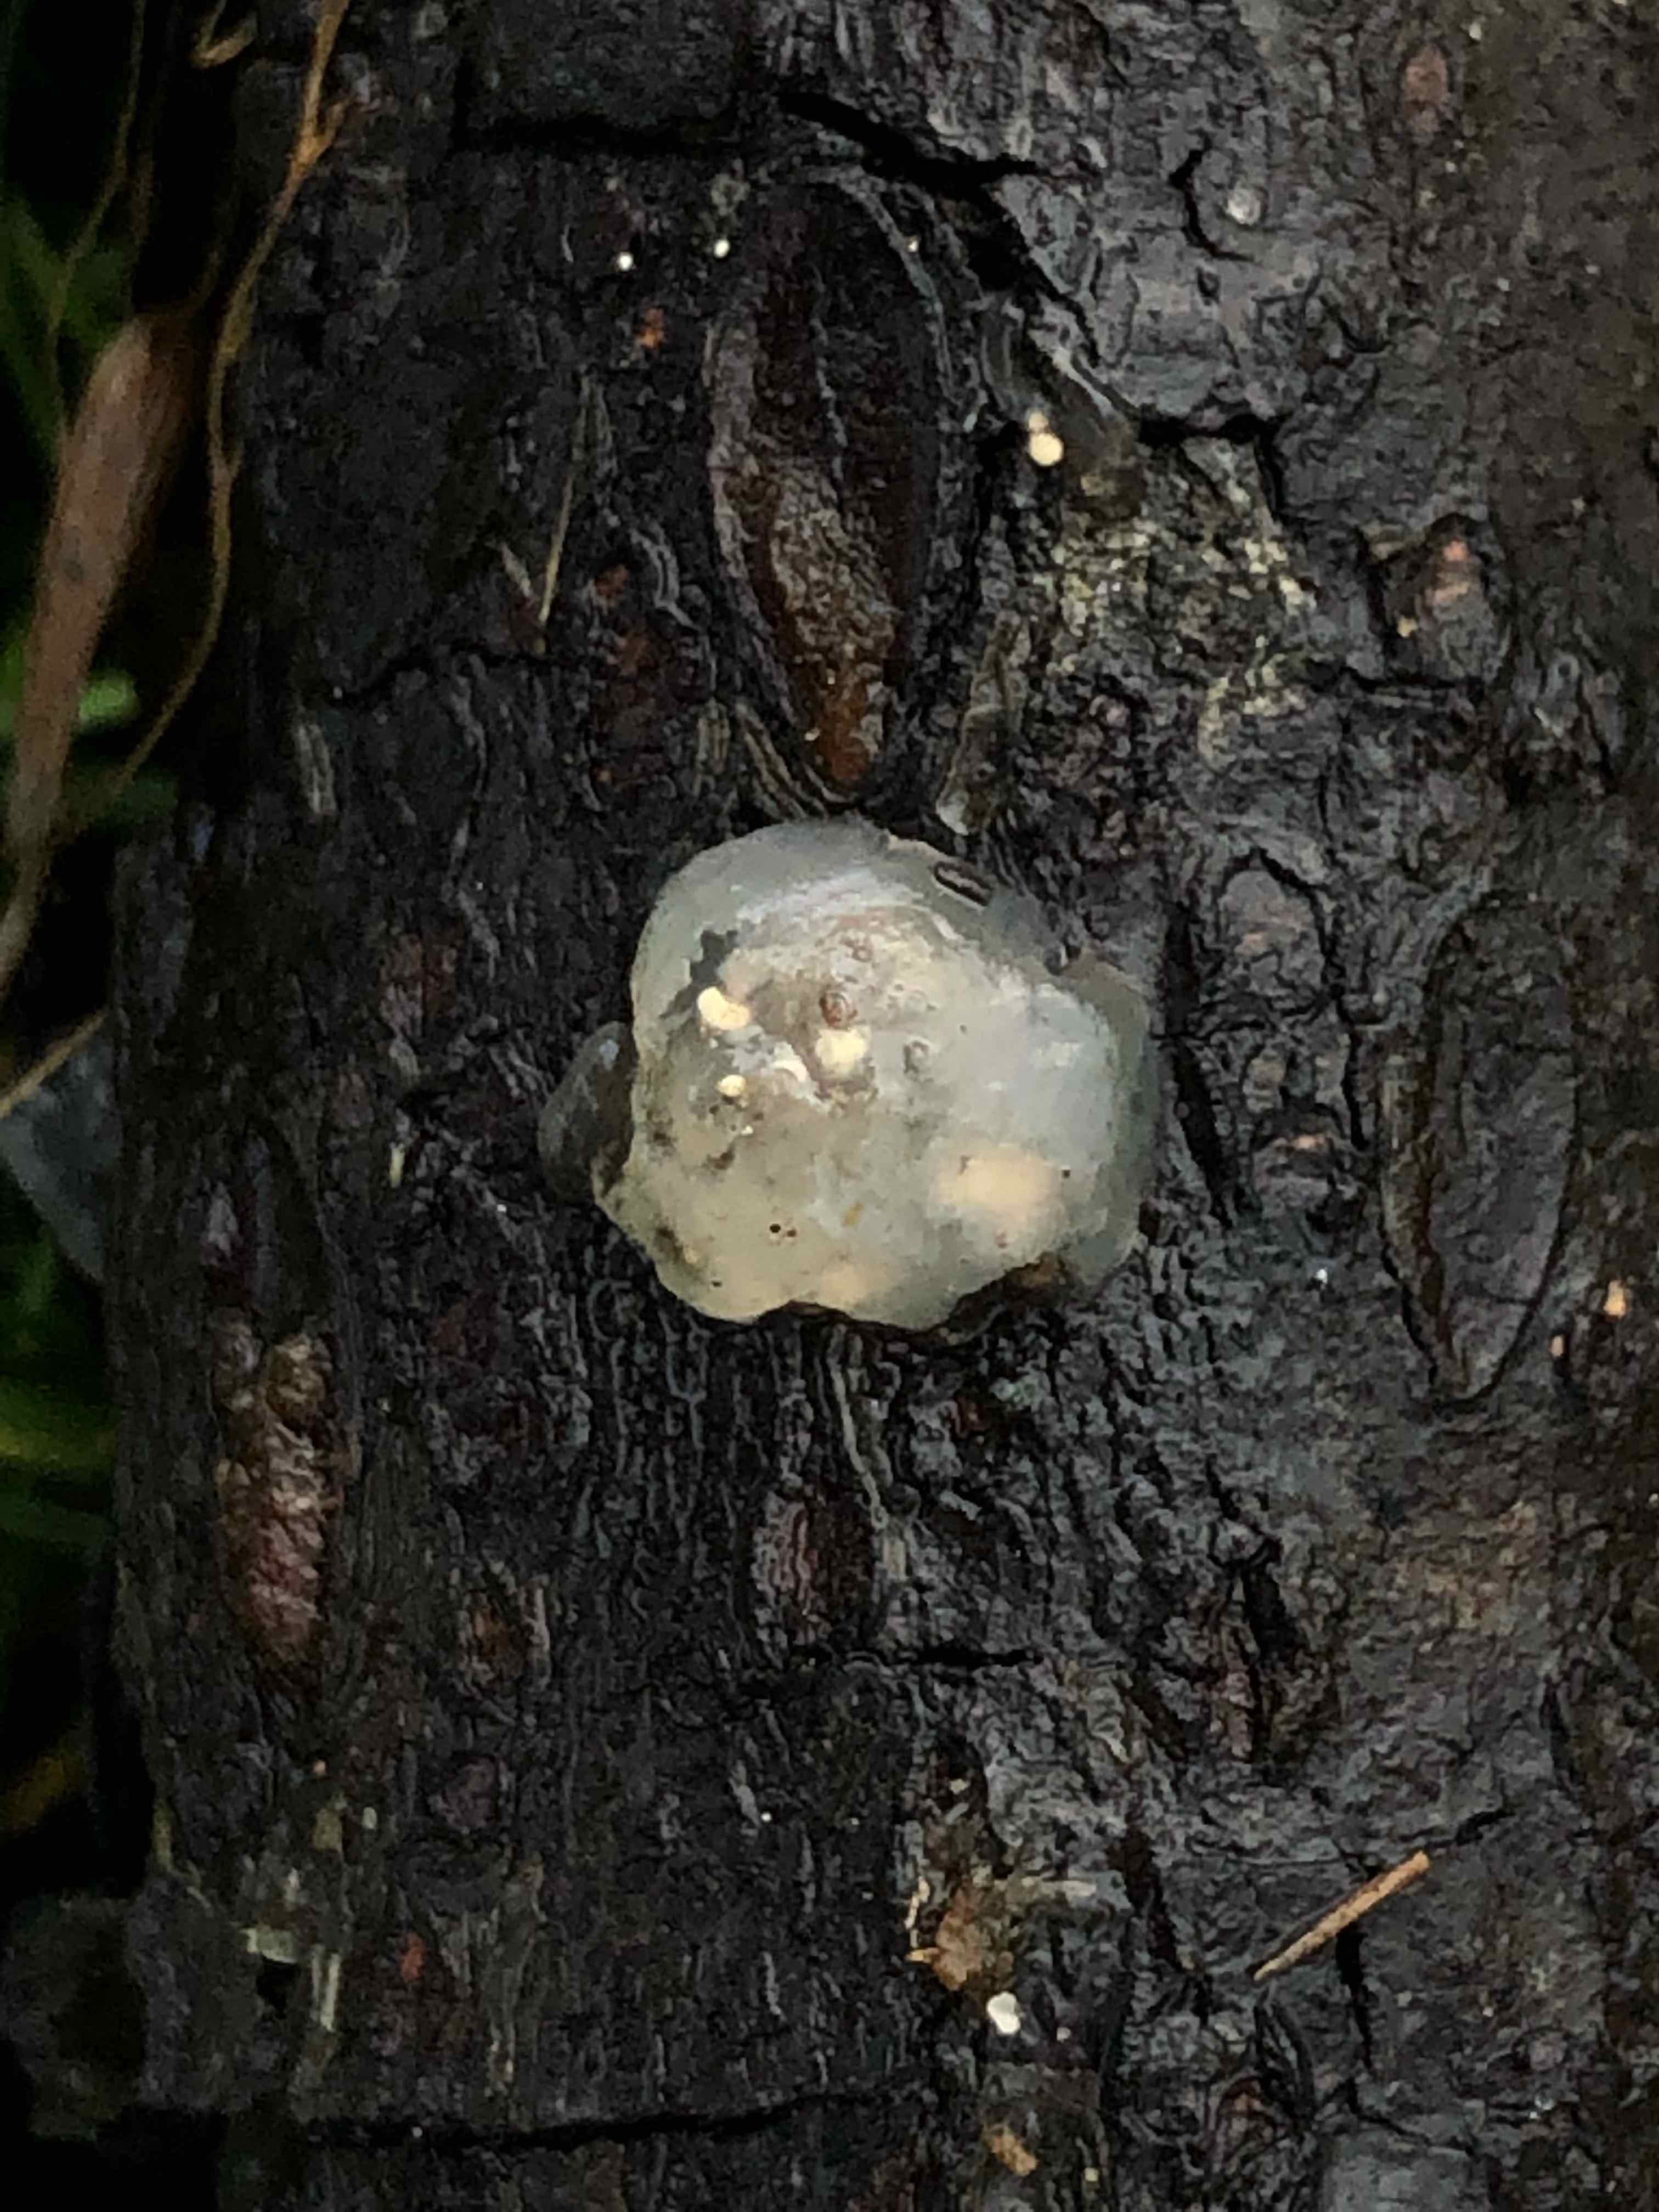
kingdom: Fungi
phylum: Basidiomycota
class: Agaricomycetes
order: Auriculariales
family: Hyaloriaceae
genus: Myxarium
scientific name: Myxarium nucleatum
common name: klar bævretop
